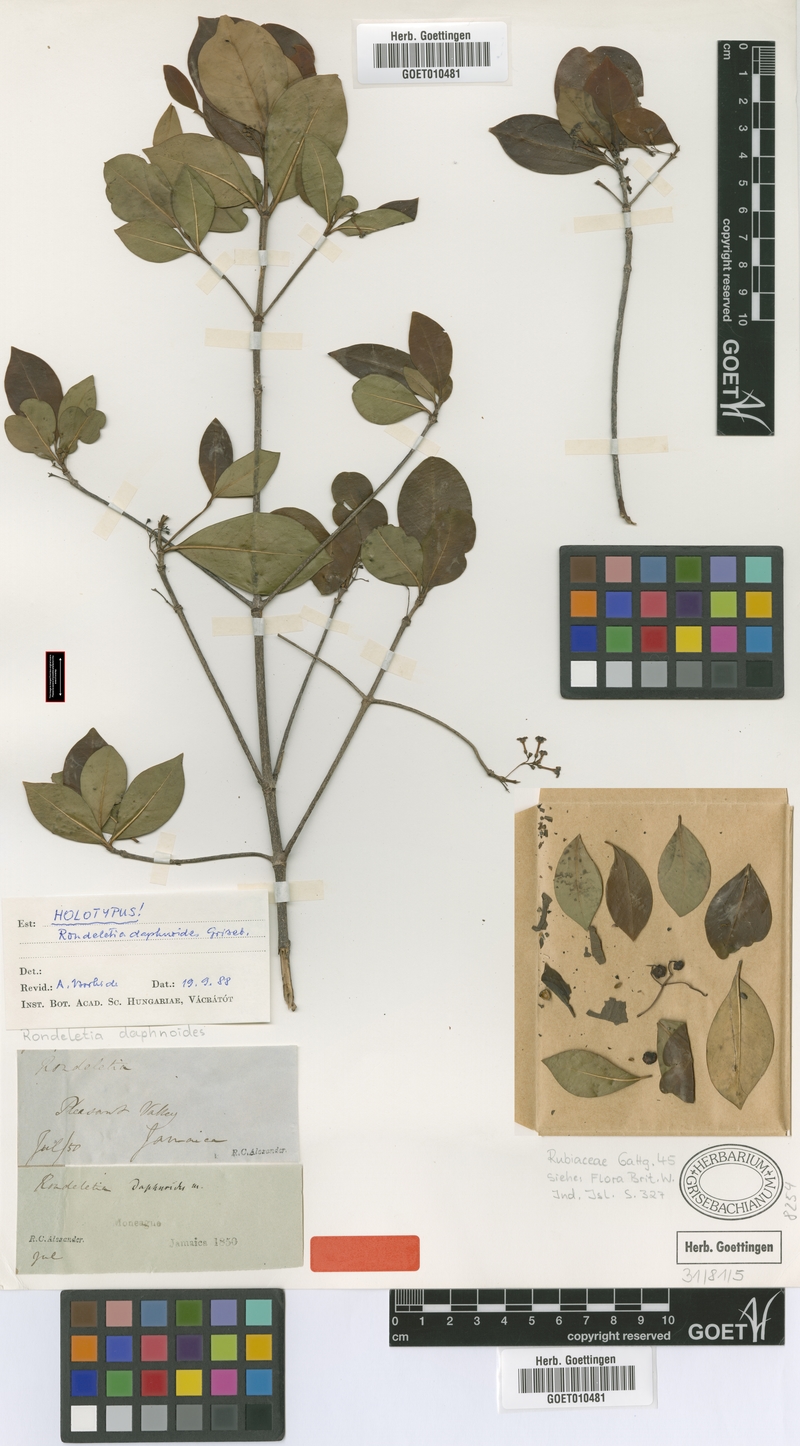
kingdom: Plantae
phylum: Tracheophyta
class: Magnoliopsida
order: Gentianales
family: Rubiaceae
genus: Rondeletia
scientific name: Rondeletia daphnoides
